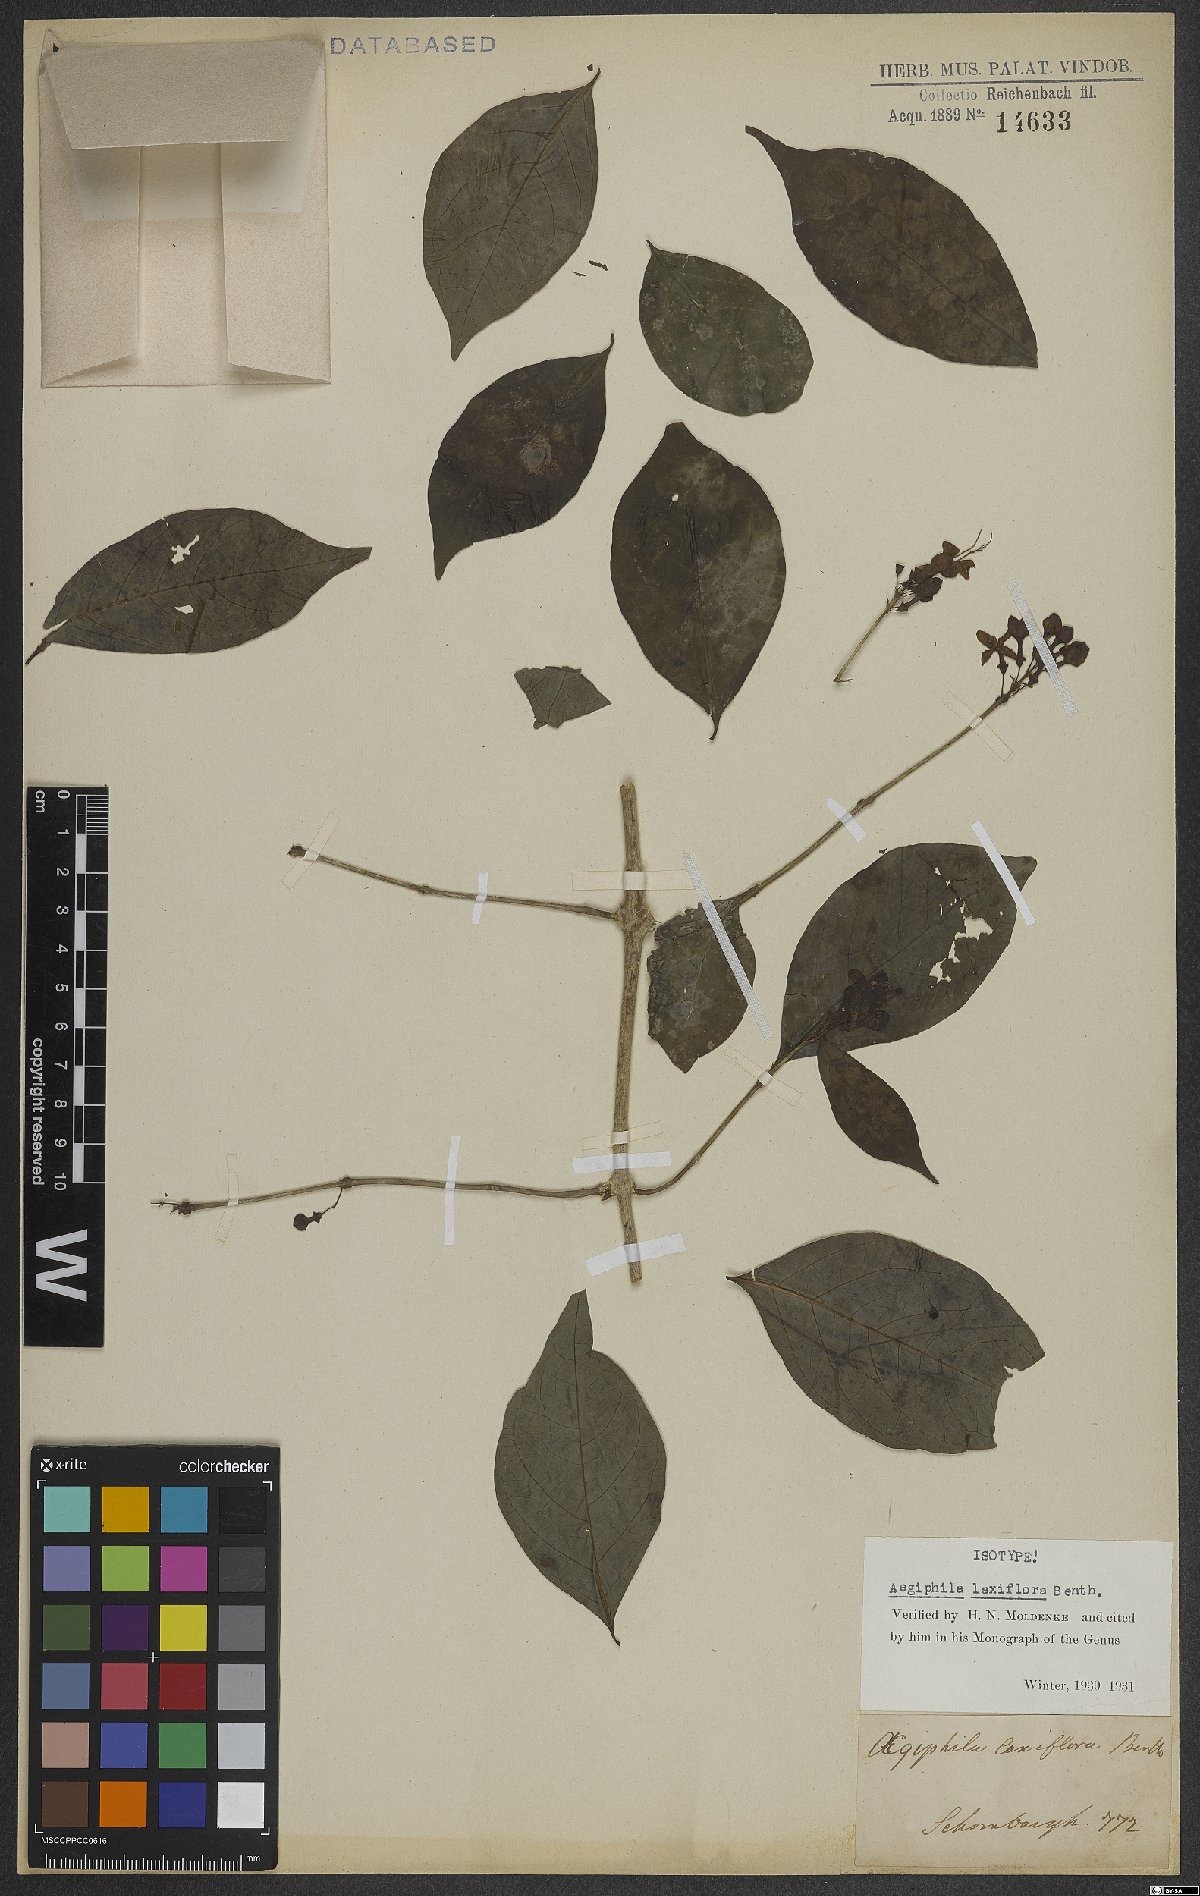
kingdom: Plantae
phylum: Tracheophyta
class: Magnoliopsida
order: Lamiales
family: Lamiaceae
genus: Aegiphila
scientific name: Aegiphila laxiflora
